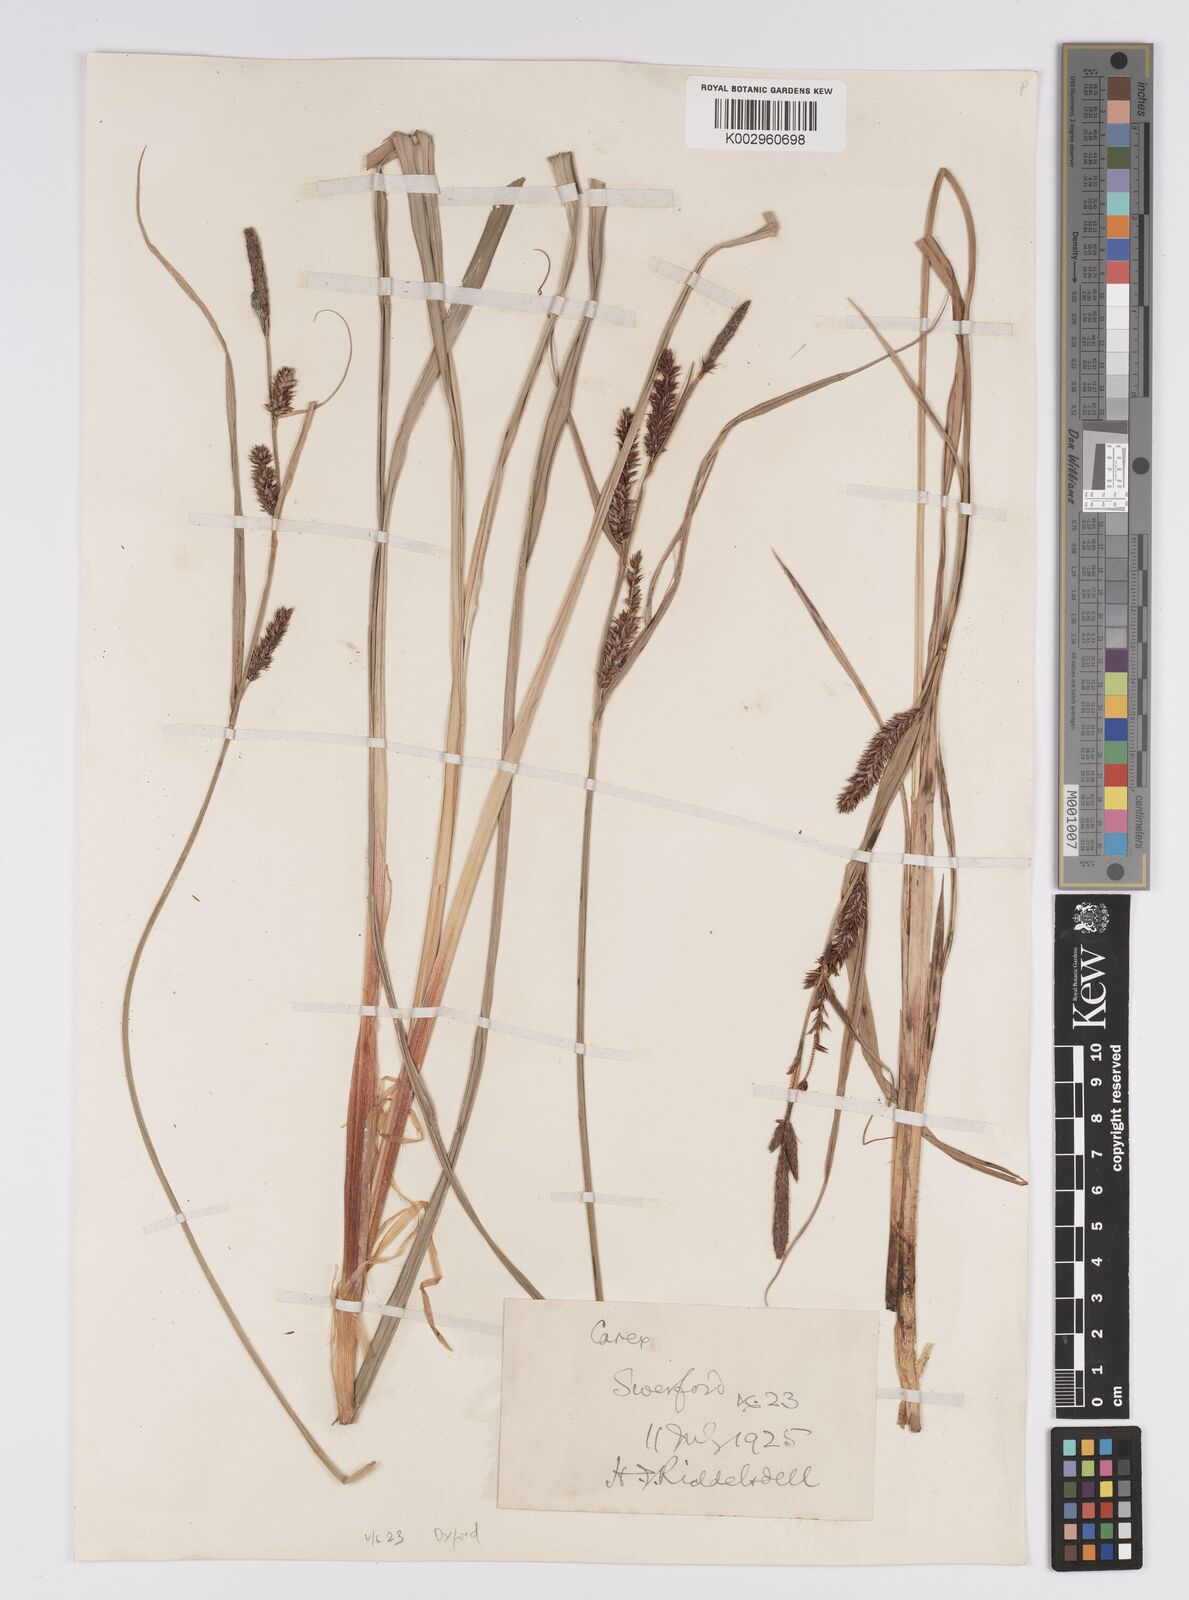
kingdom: Plantae
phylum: Tracheophyta
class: Liliopsida
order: Poales
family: Cyperaceae
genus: Carex
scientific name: Carex acutiformis
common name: Lesser pond-sedge
